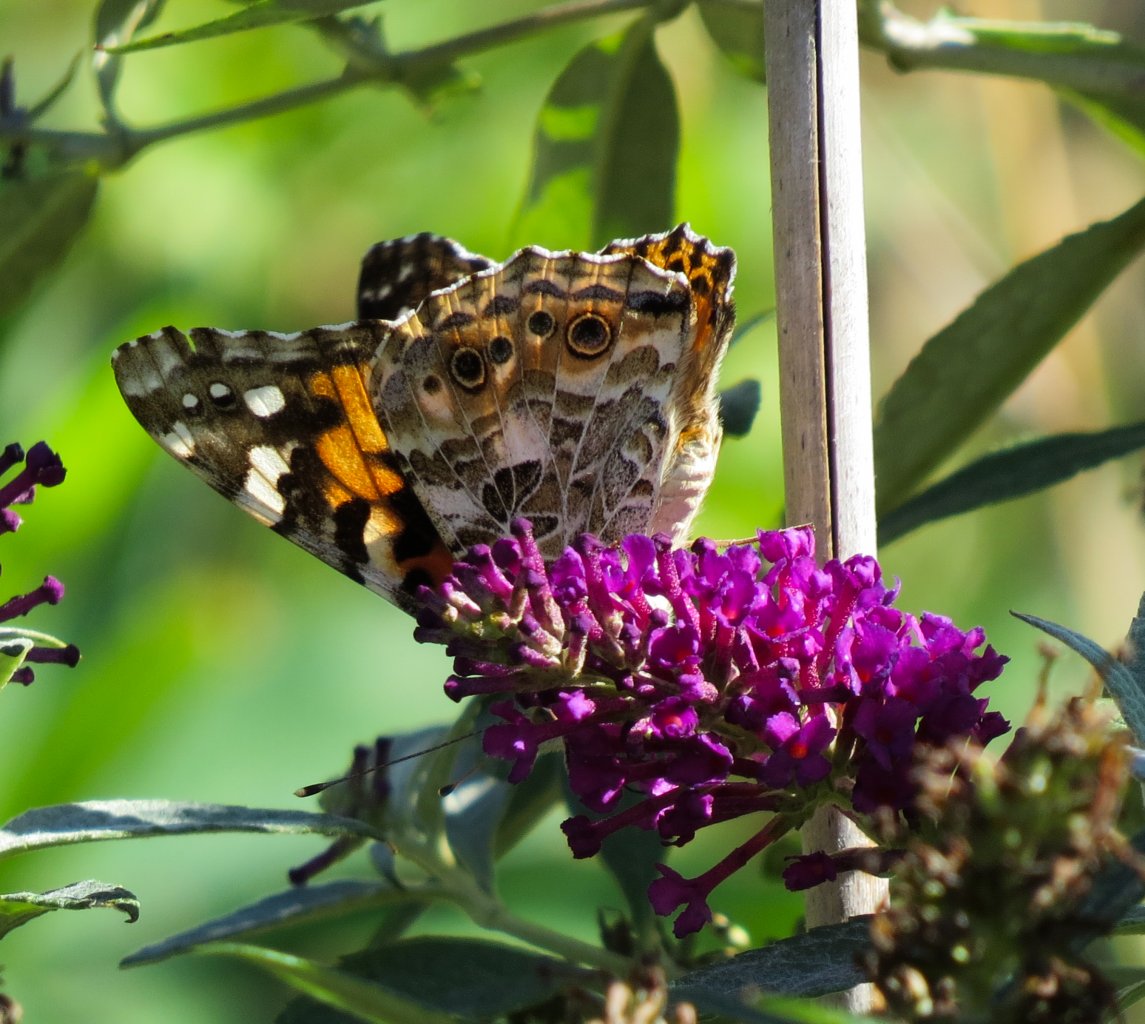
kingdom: Animalia
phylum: Arthropoda
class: Insecta
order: Lepidoptera
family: Nymphalidae
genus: Vanessa
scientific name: Vanessa cardui
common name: Painted Lady
